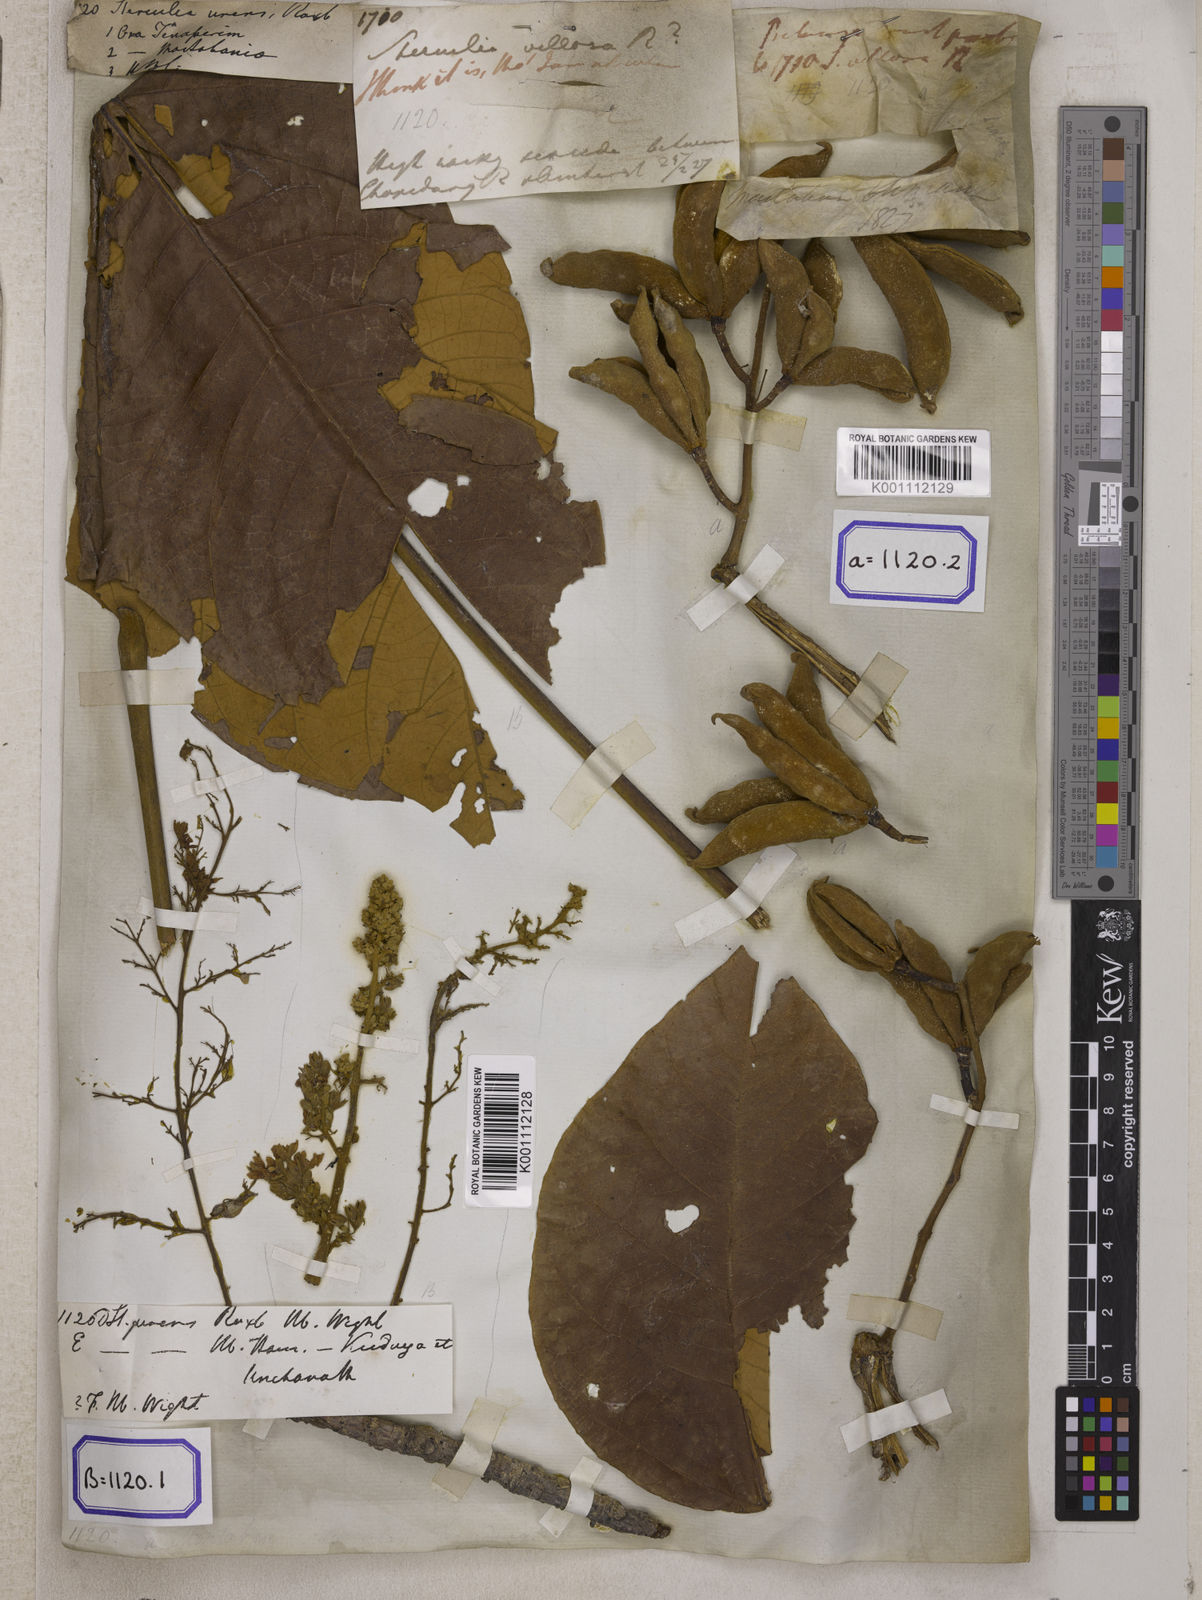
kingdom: Plantae
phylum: Tracheophyta
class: Magnoliopsida
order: Malvales
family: Malvaceae
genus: Sterculia
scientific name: Sterculia urens
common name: Indian-tragacanth
